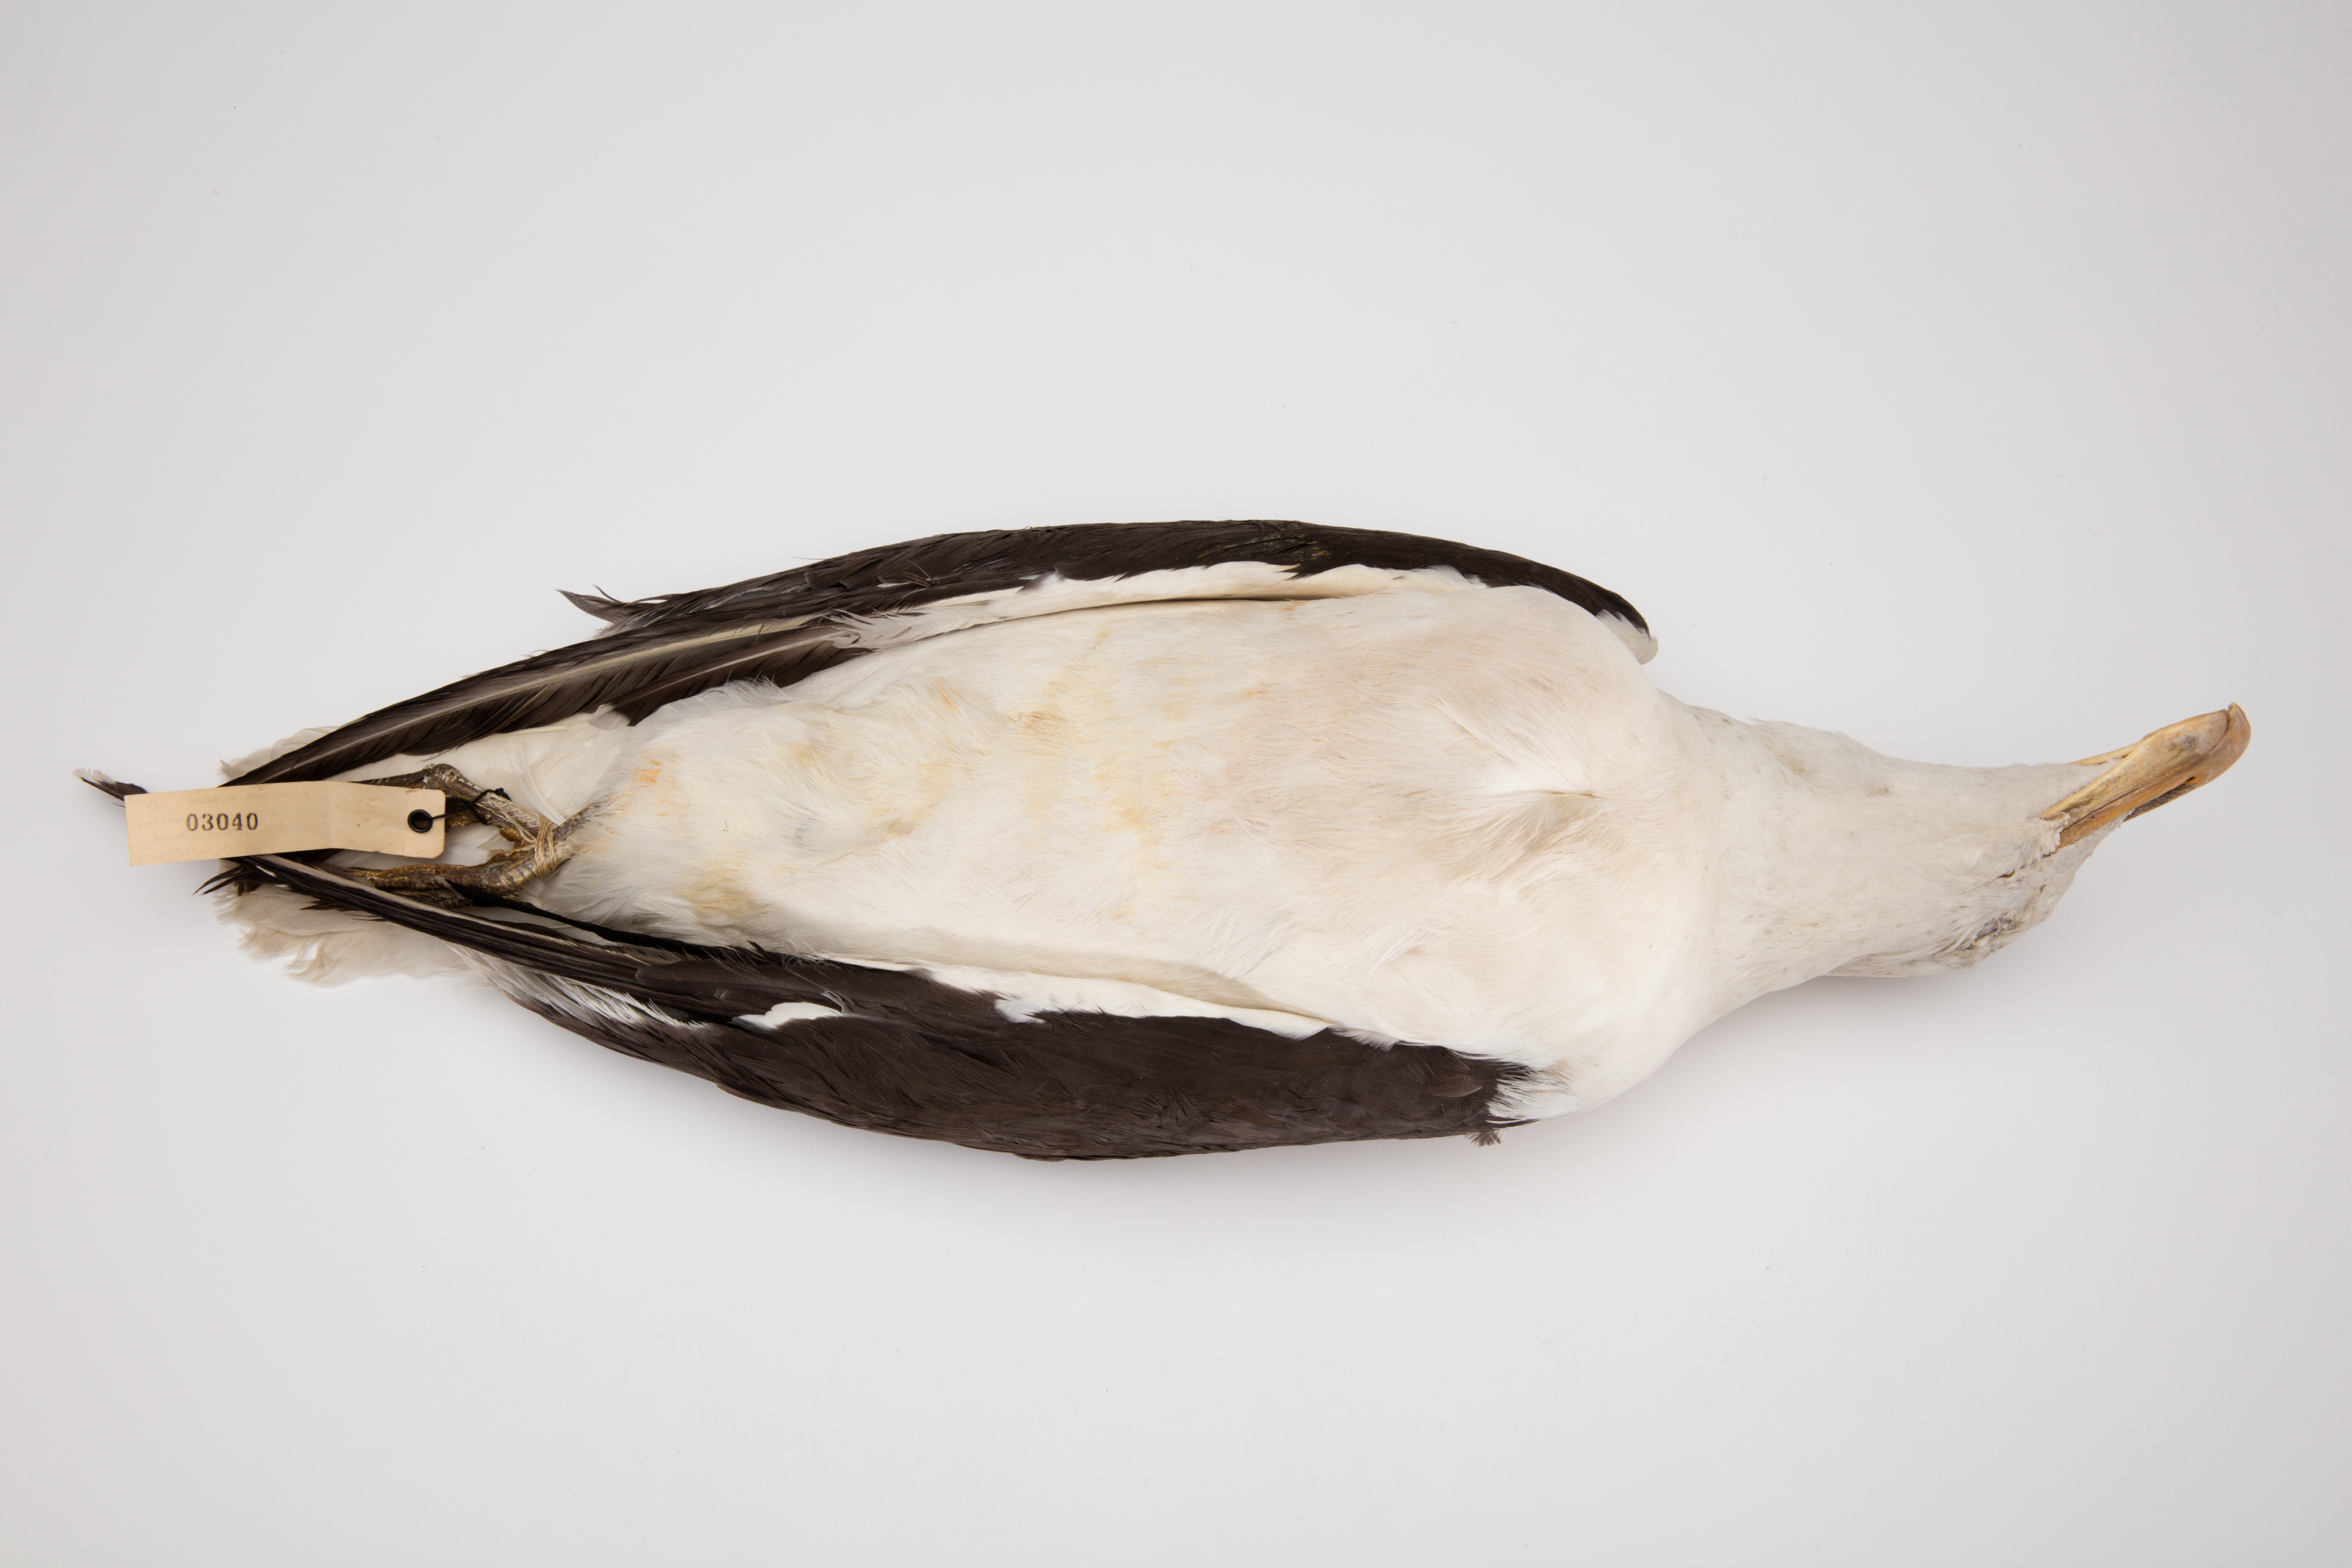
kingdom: Animalia
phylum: Chordata
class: Aves
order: Charadriiformes
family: Laridae
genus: Larus
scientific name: Larus dominicanus
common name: Kelp gull
